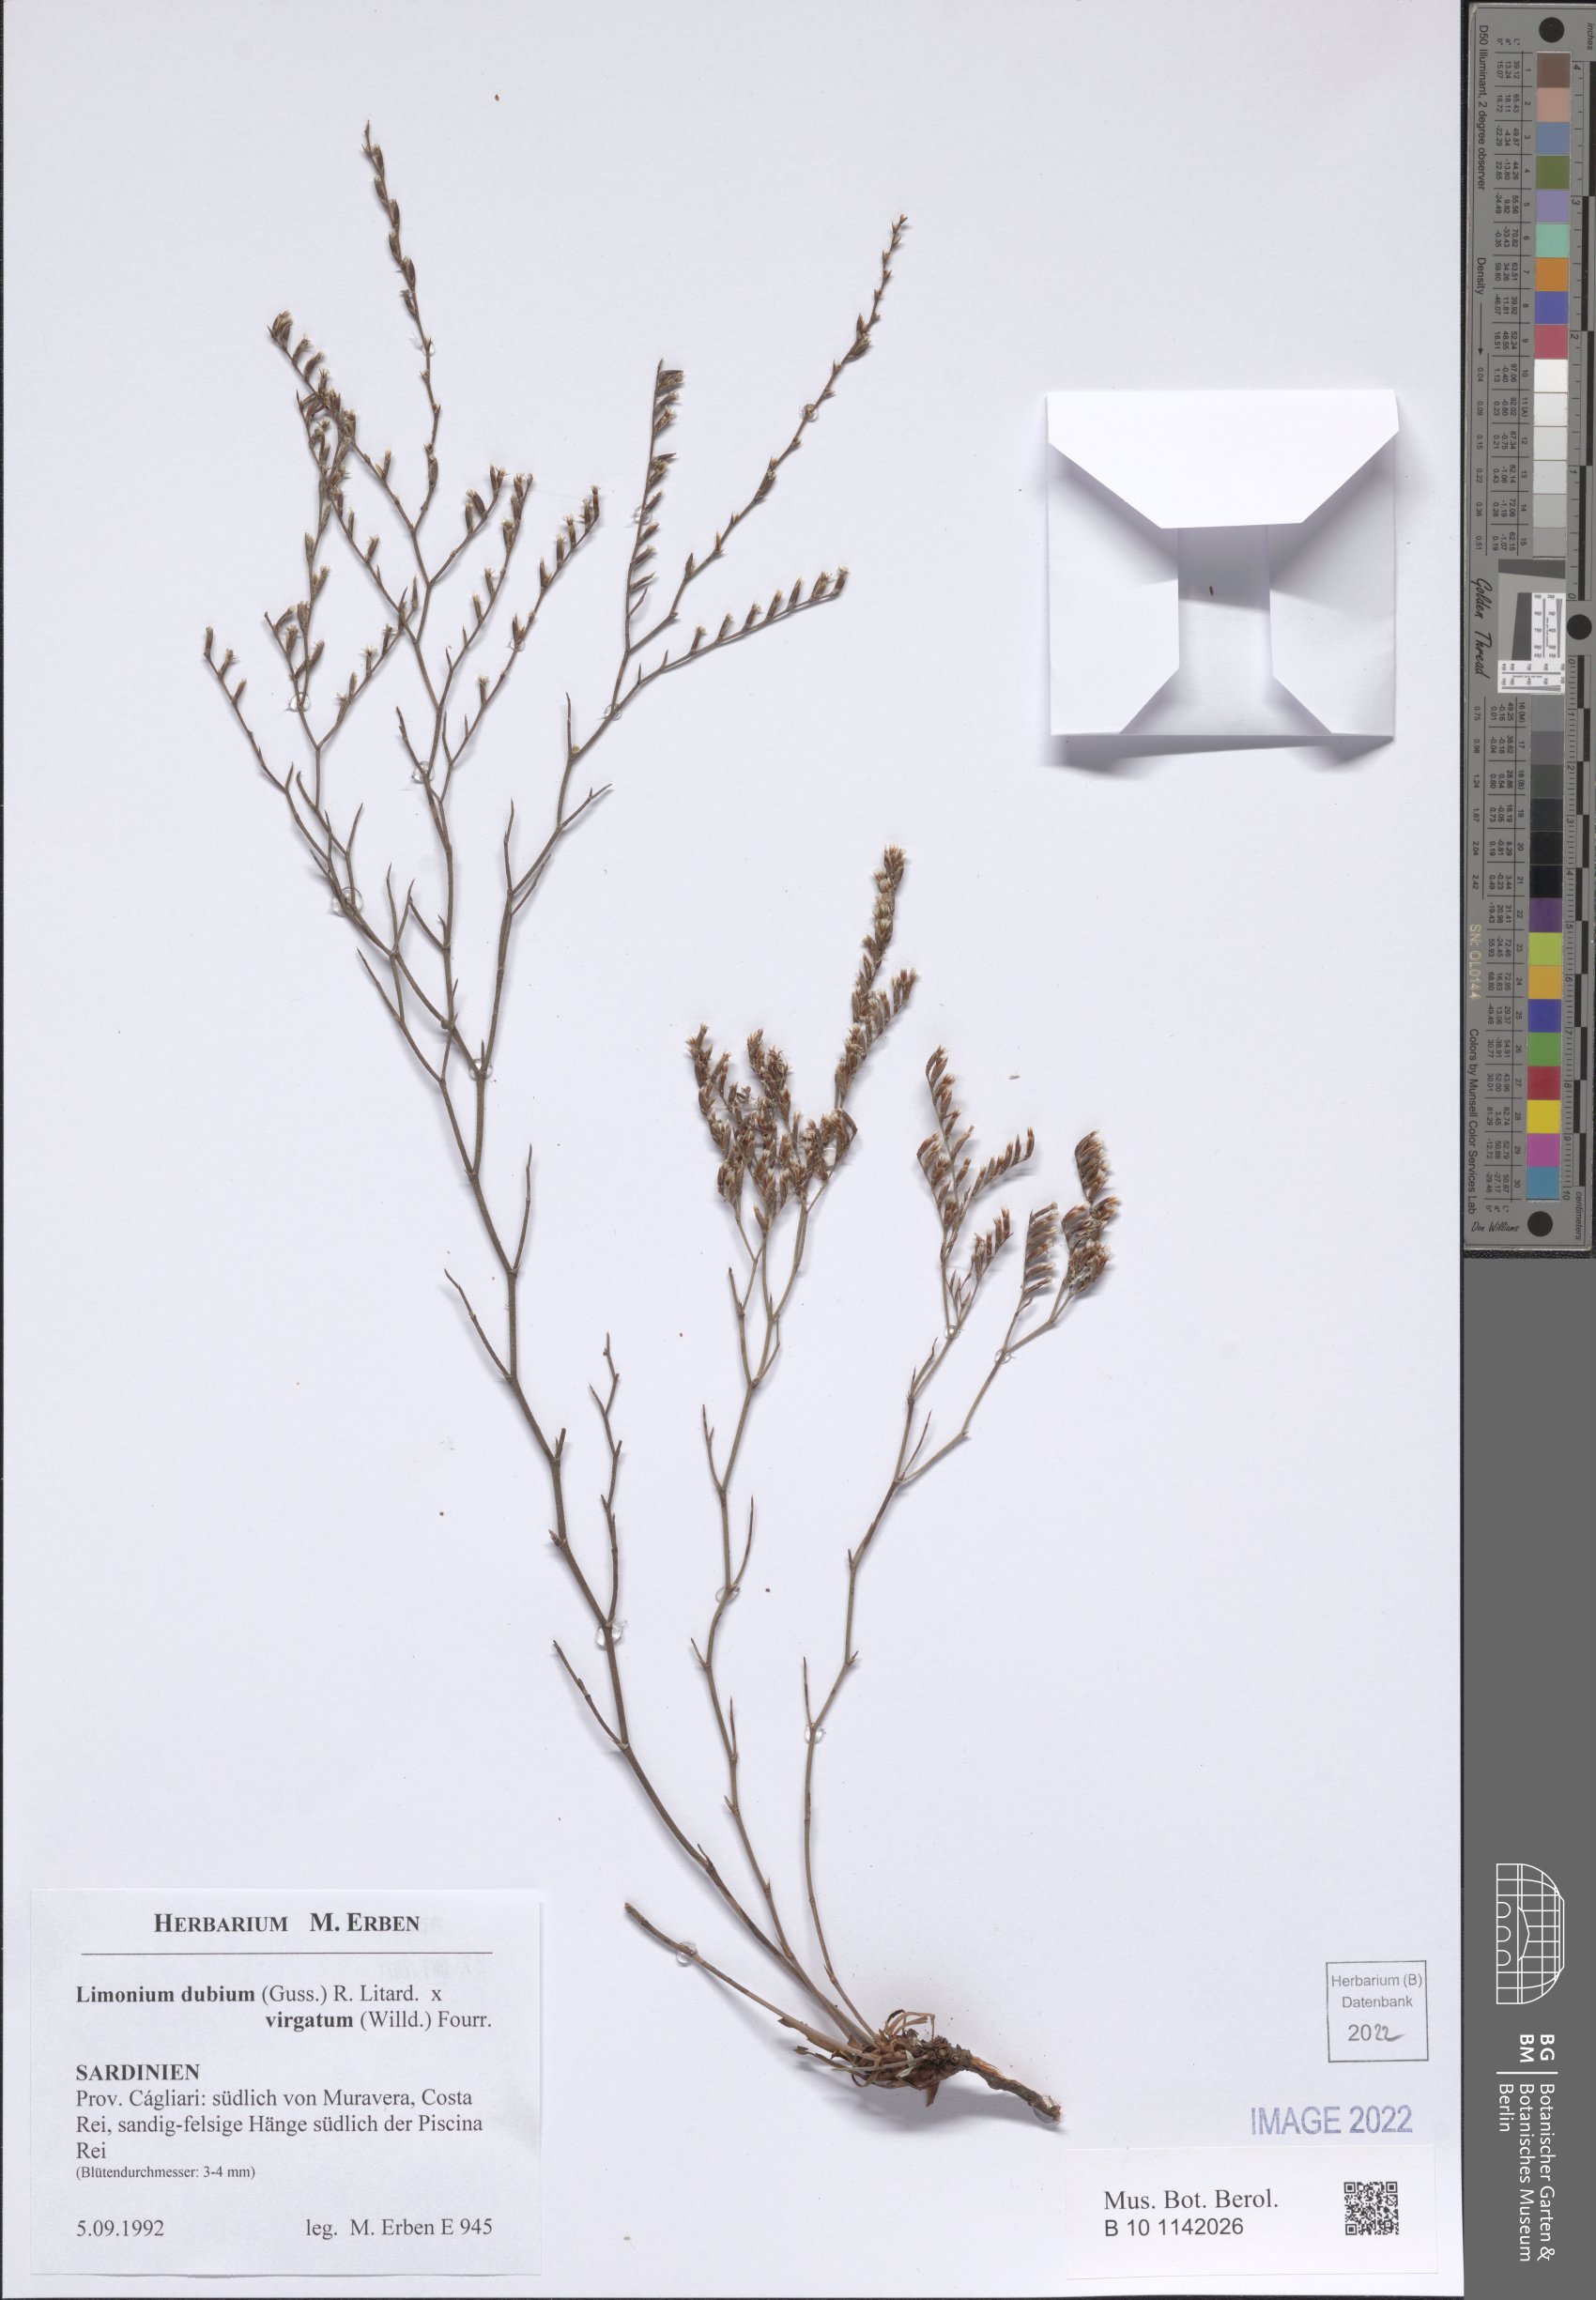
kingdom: Plantae
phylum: Tracheophyta
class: Magnoliopsida
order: Caryophyllales
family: Plumbaginaceae
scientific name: Plumbaginaceae
